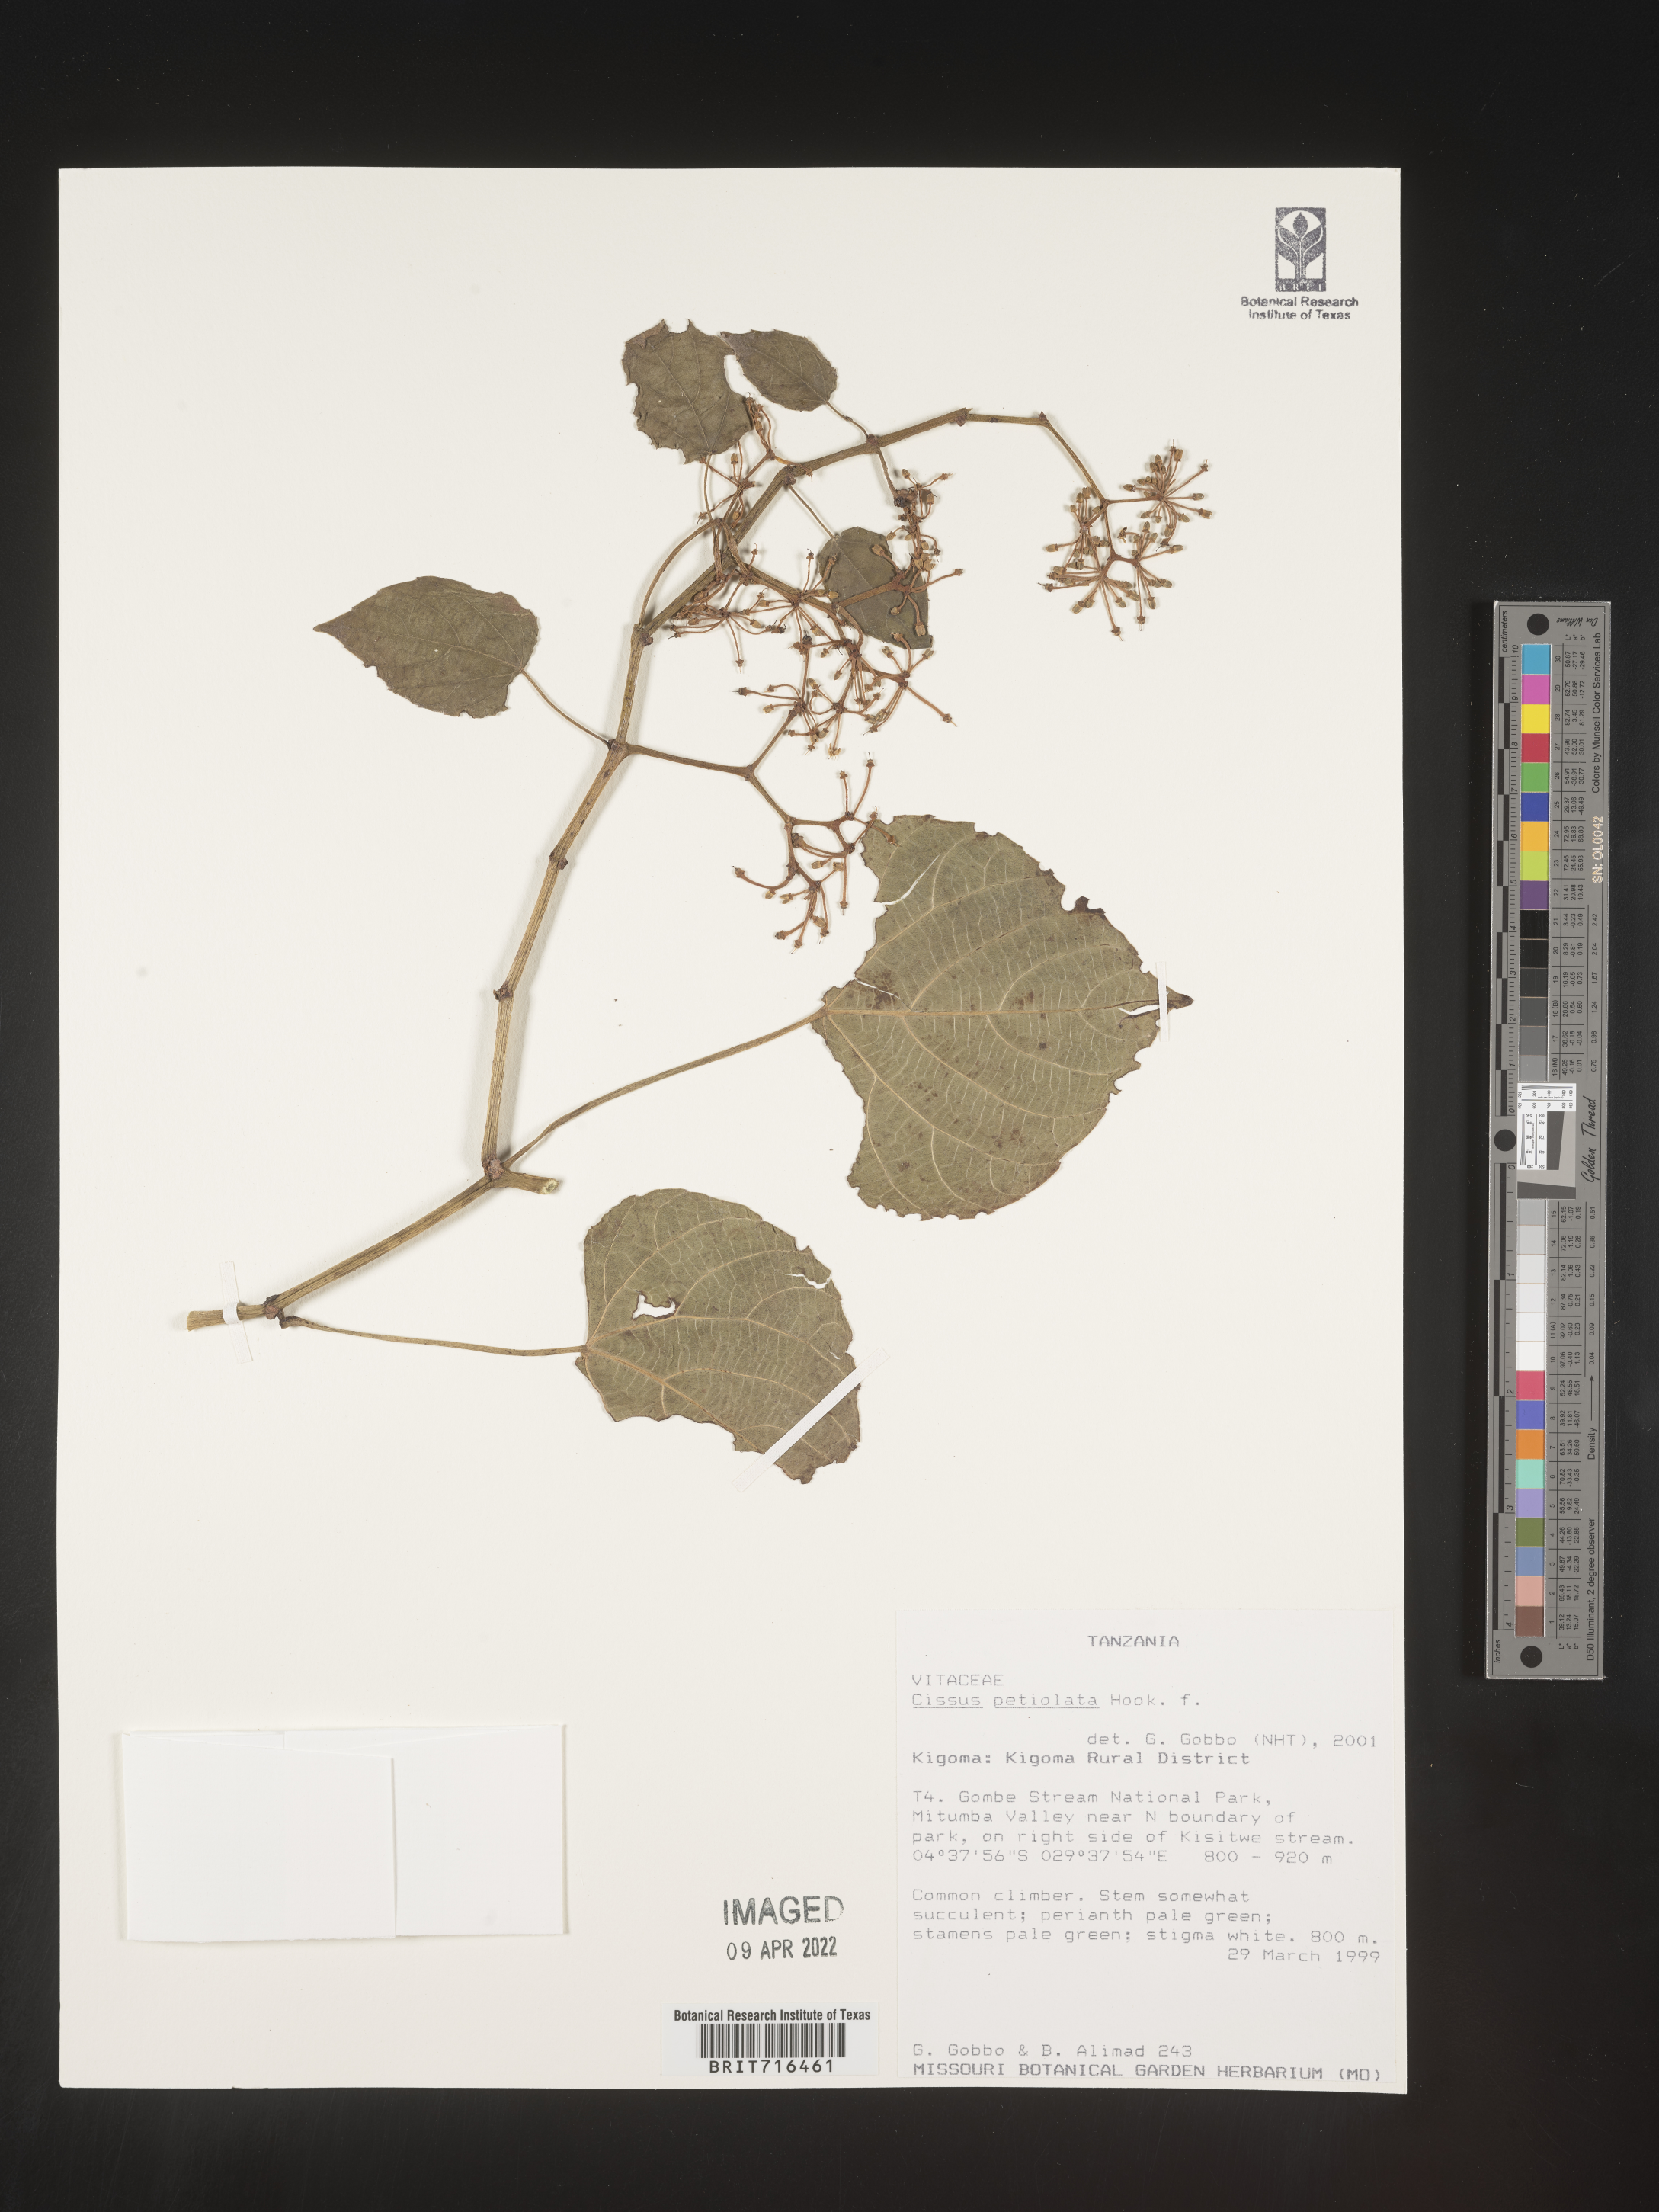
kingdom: Plantae
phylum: Tracheophyta
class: Magnoliopsida
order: Vitales
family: Vitaceae
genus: Cissus
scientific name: Cissus
